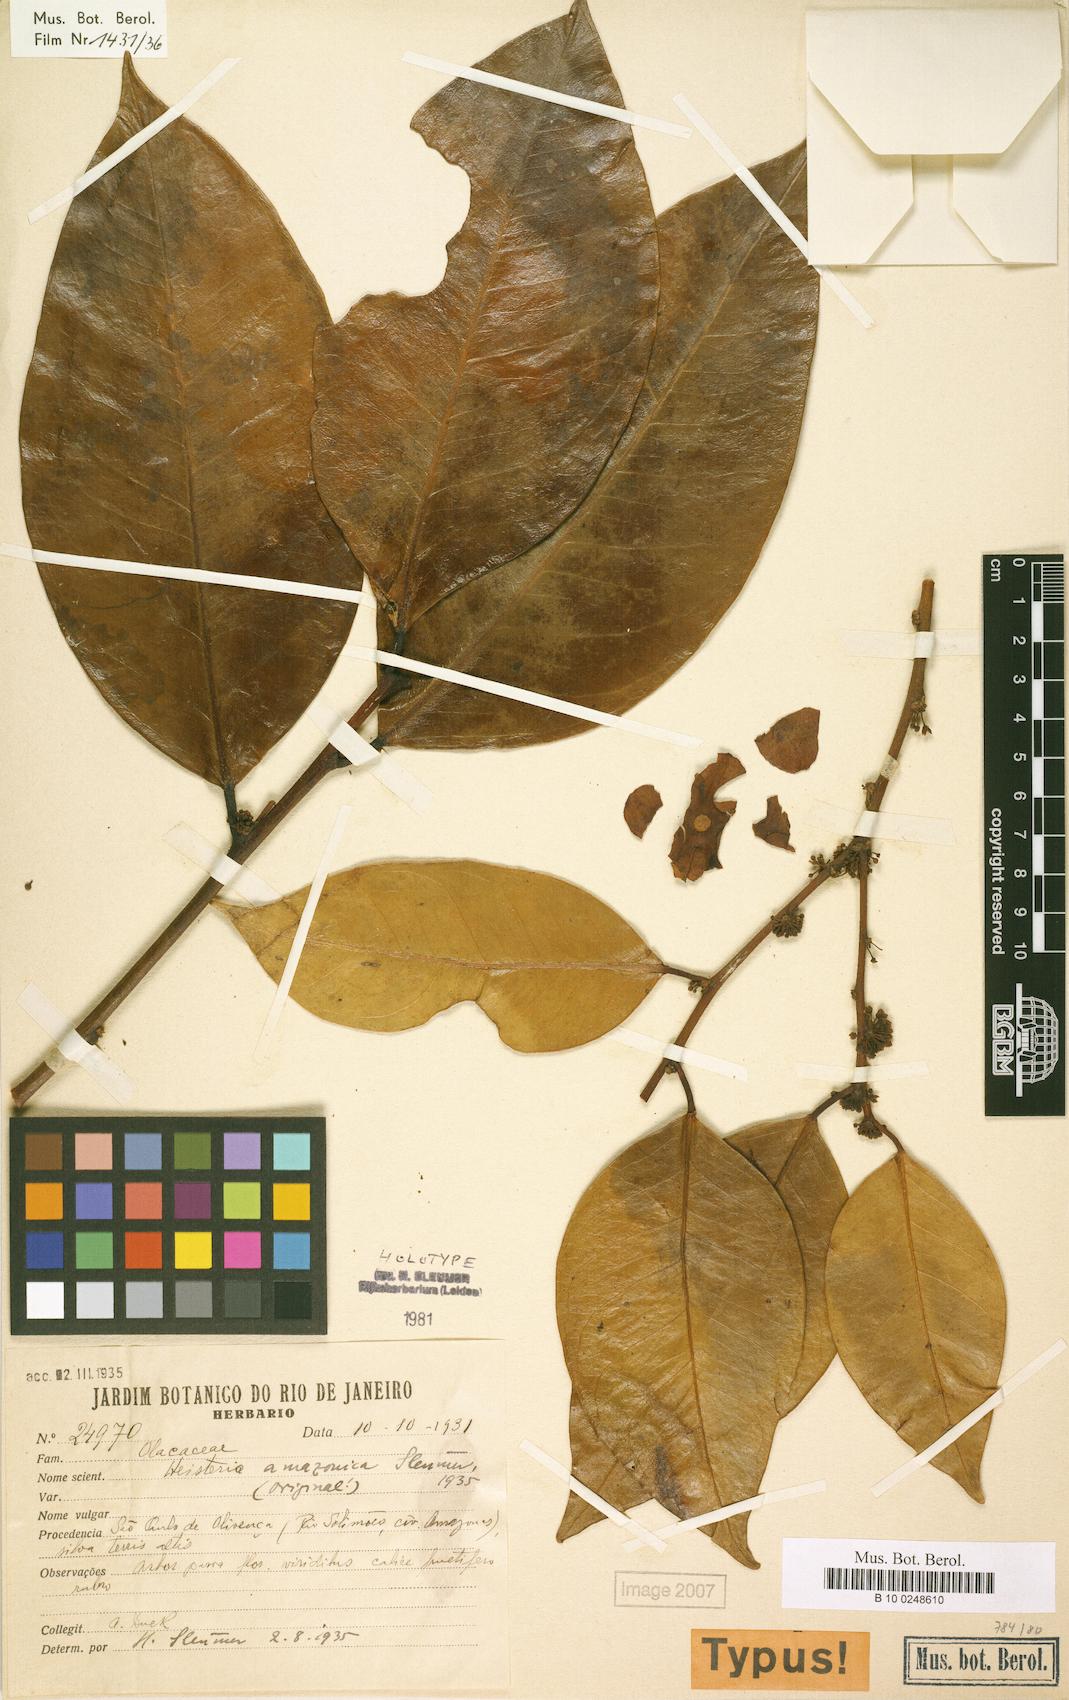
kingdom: Plantae
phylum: Tracheophyta
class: Magnoliopsida
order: Santalales
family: Erythropalaceae
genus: Heisteria
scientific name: Heisteria amazonica
